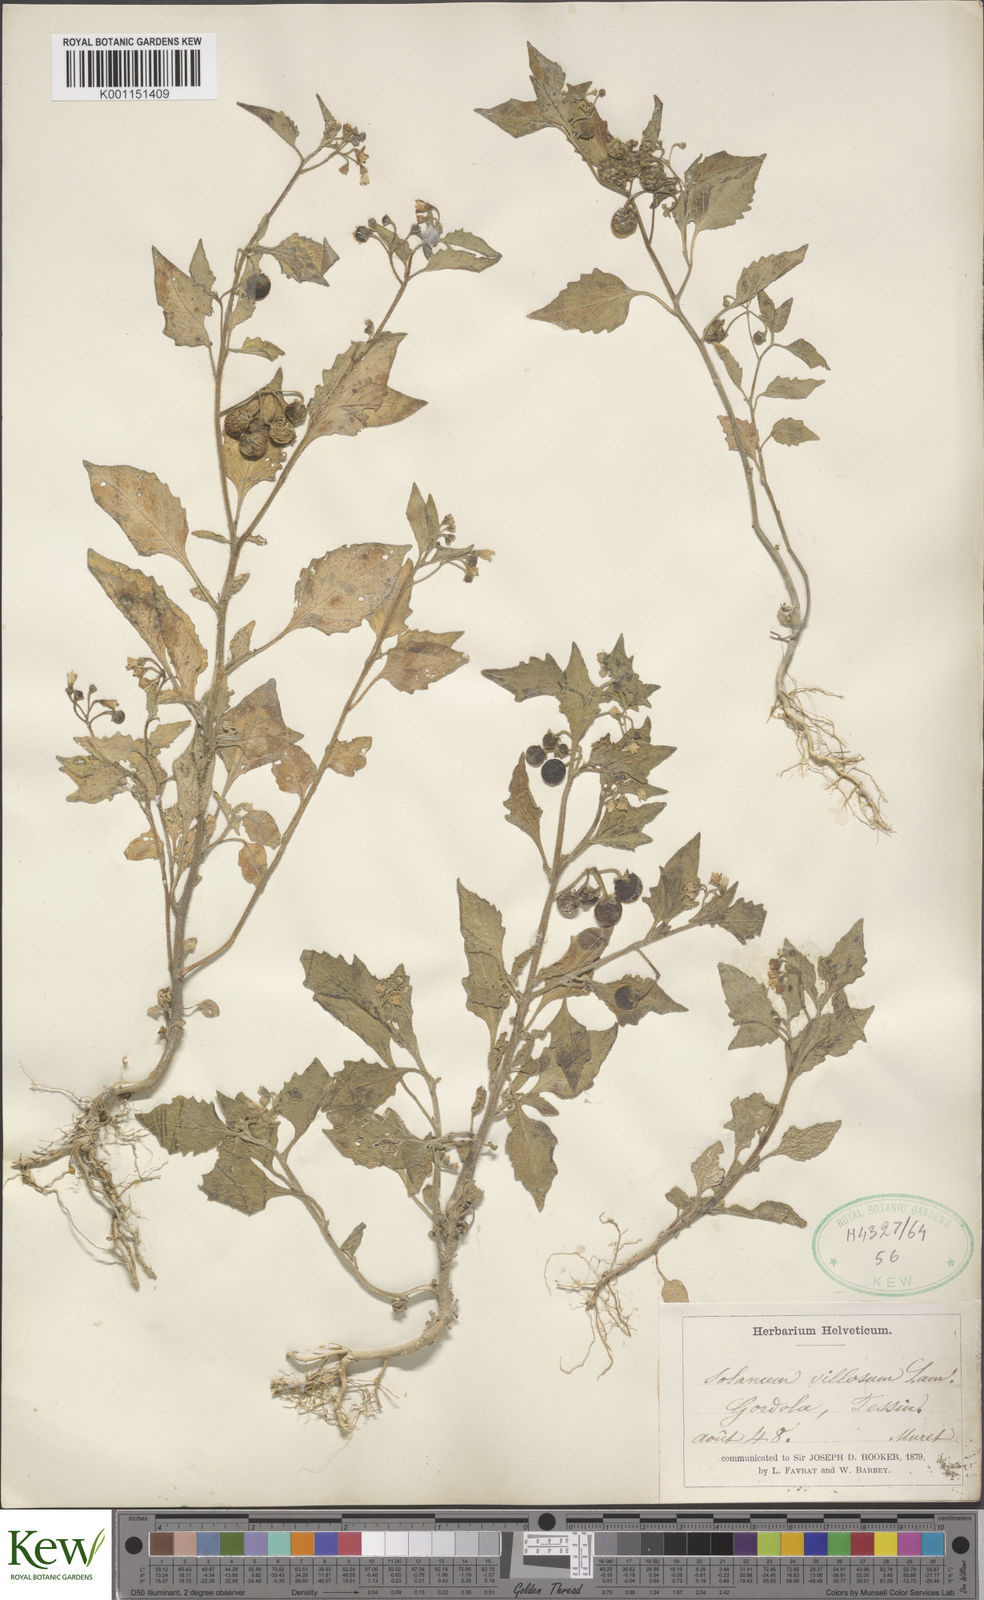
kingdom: Plantae
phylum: Tracheophyta
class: Magnoliopsida
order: Solanales
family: Solanaceae
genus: Solanum
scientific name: Solanum villosum
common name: Red nightshade
